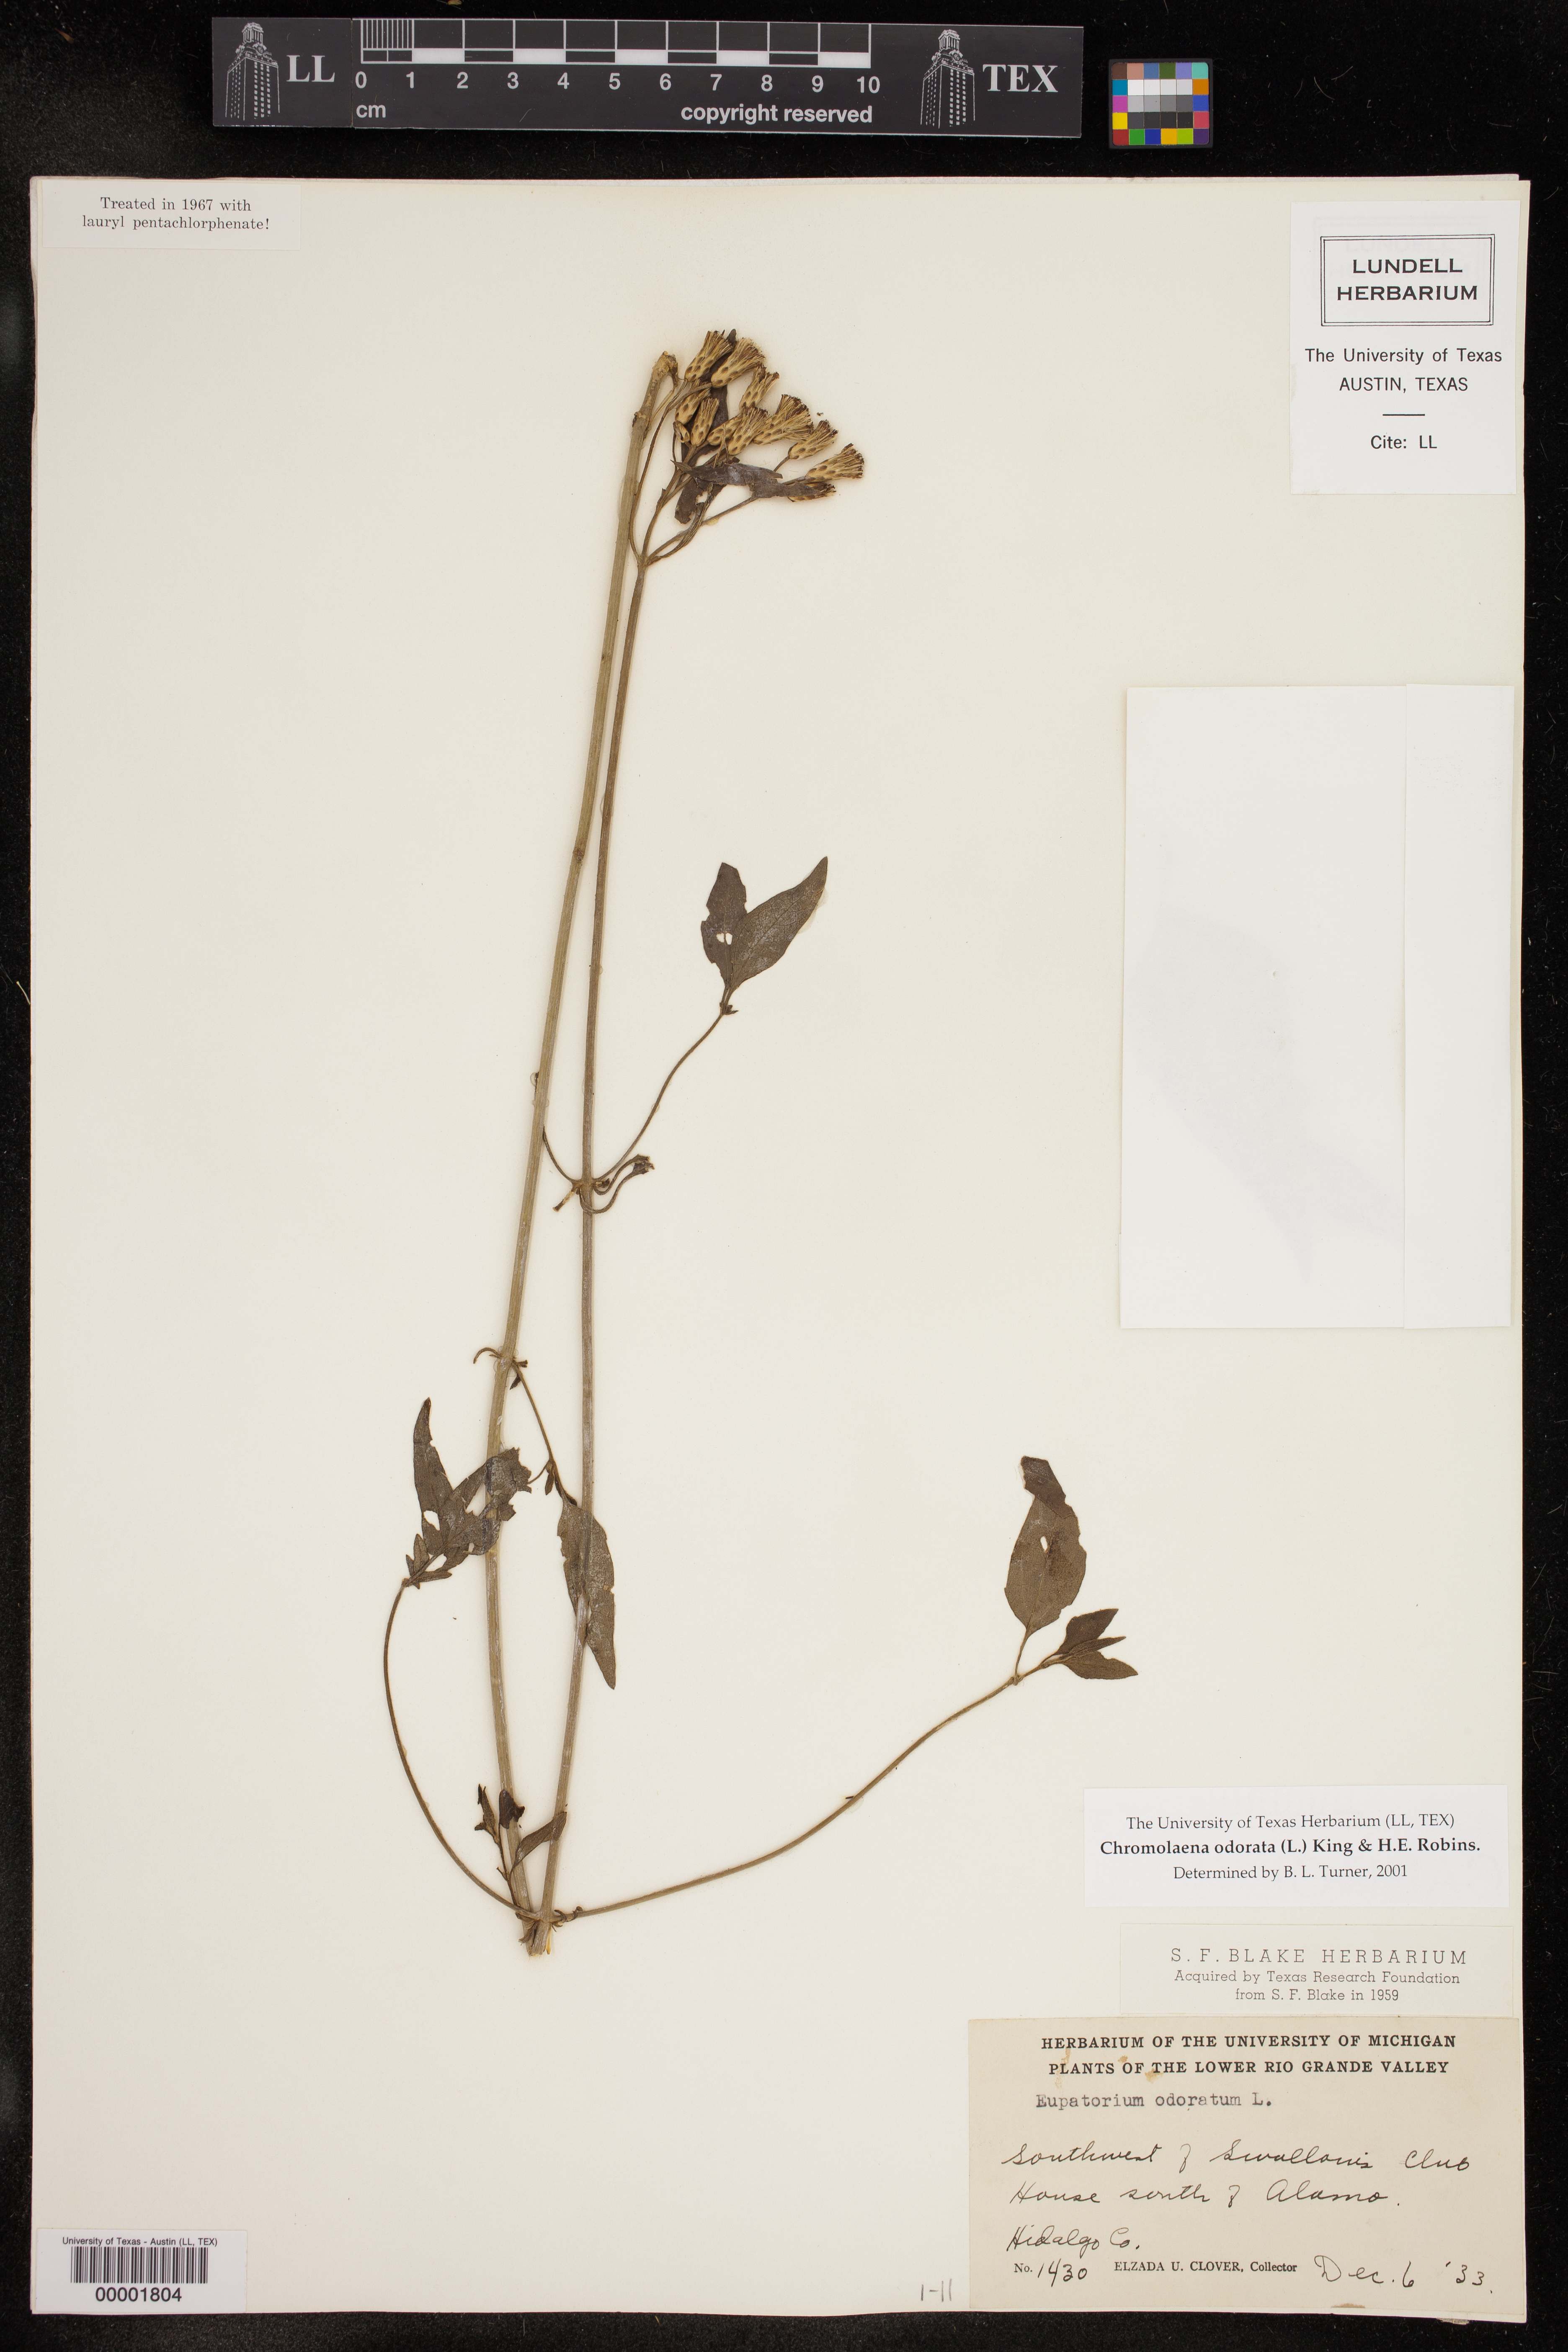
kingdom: Plantae
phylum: Tracheophyta
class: Magnoliopsida
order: Asterales
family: Asteraceae
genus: Chromolaena
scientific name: Chromolaena odorata
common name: Siamweed
